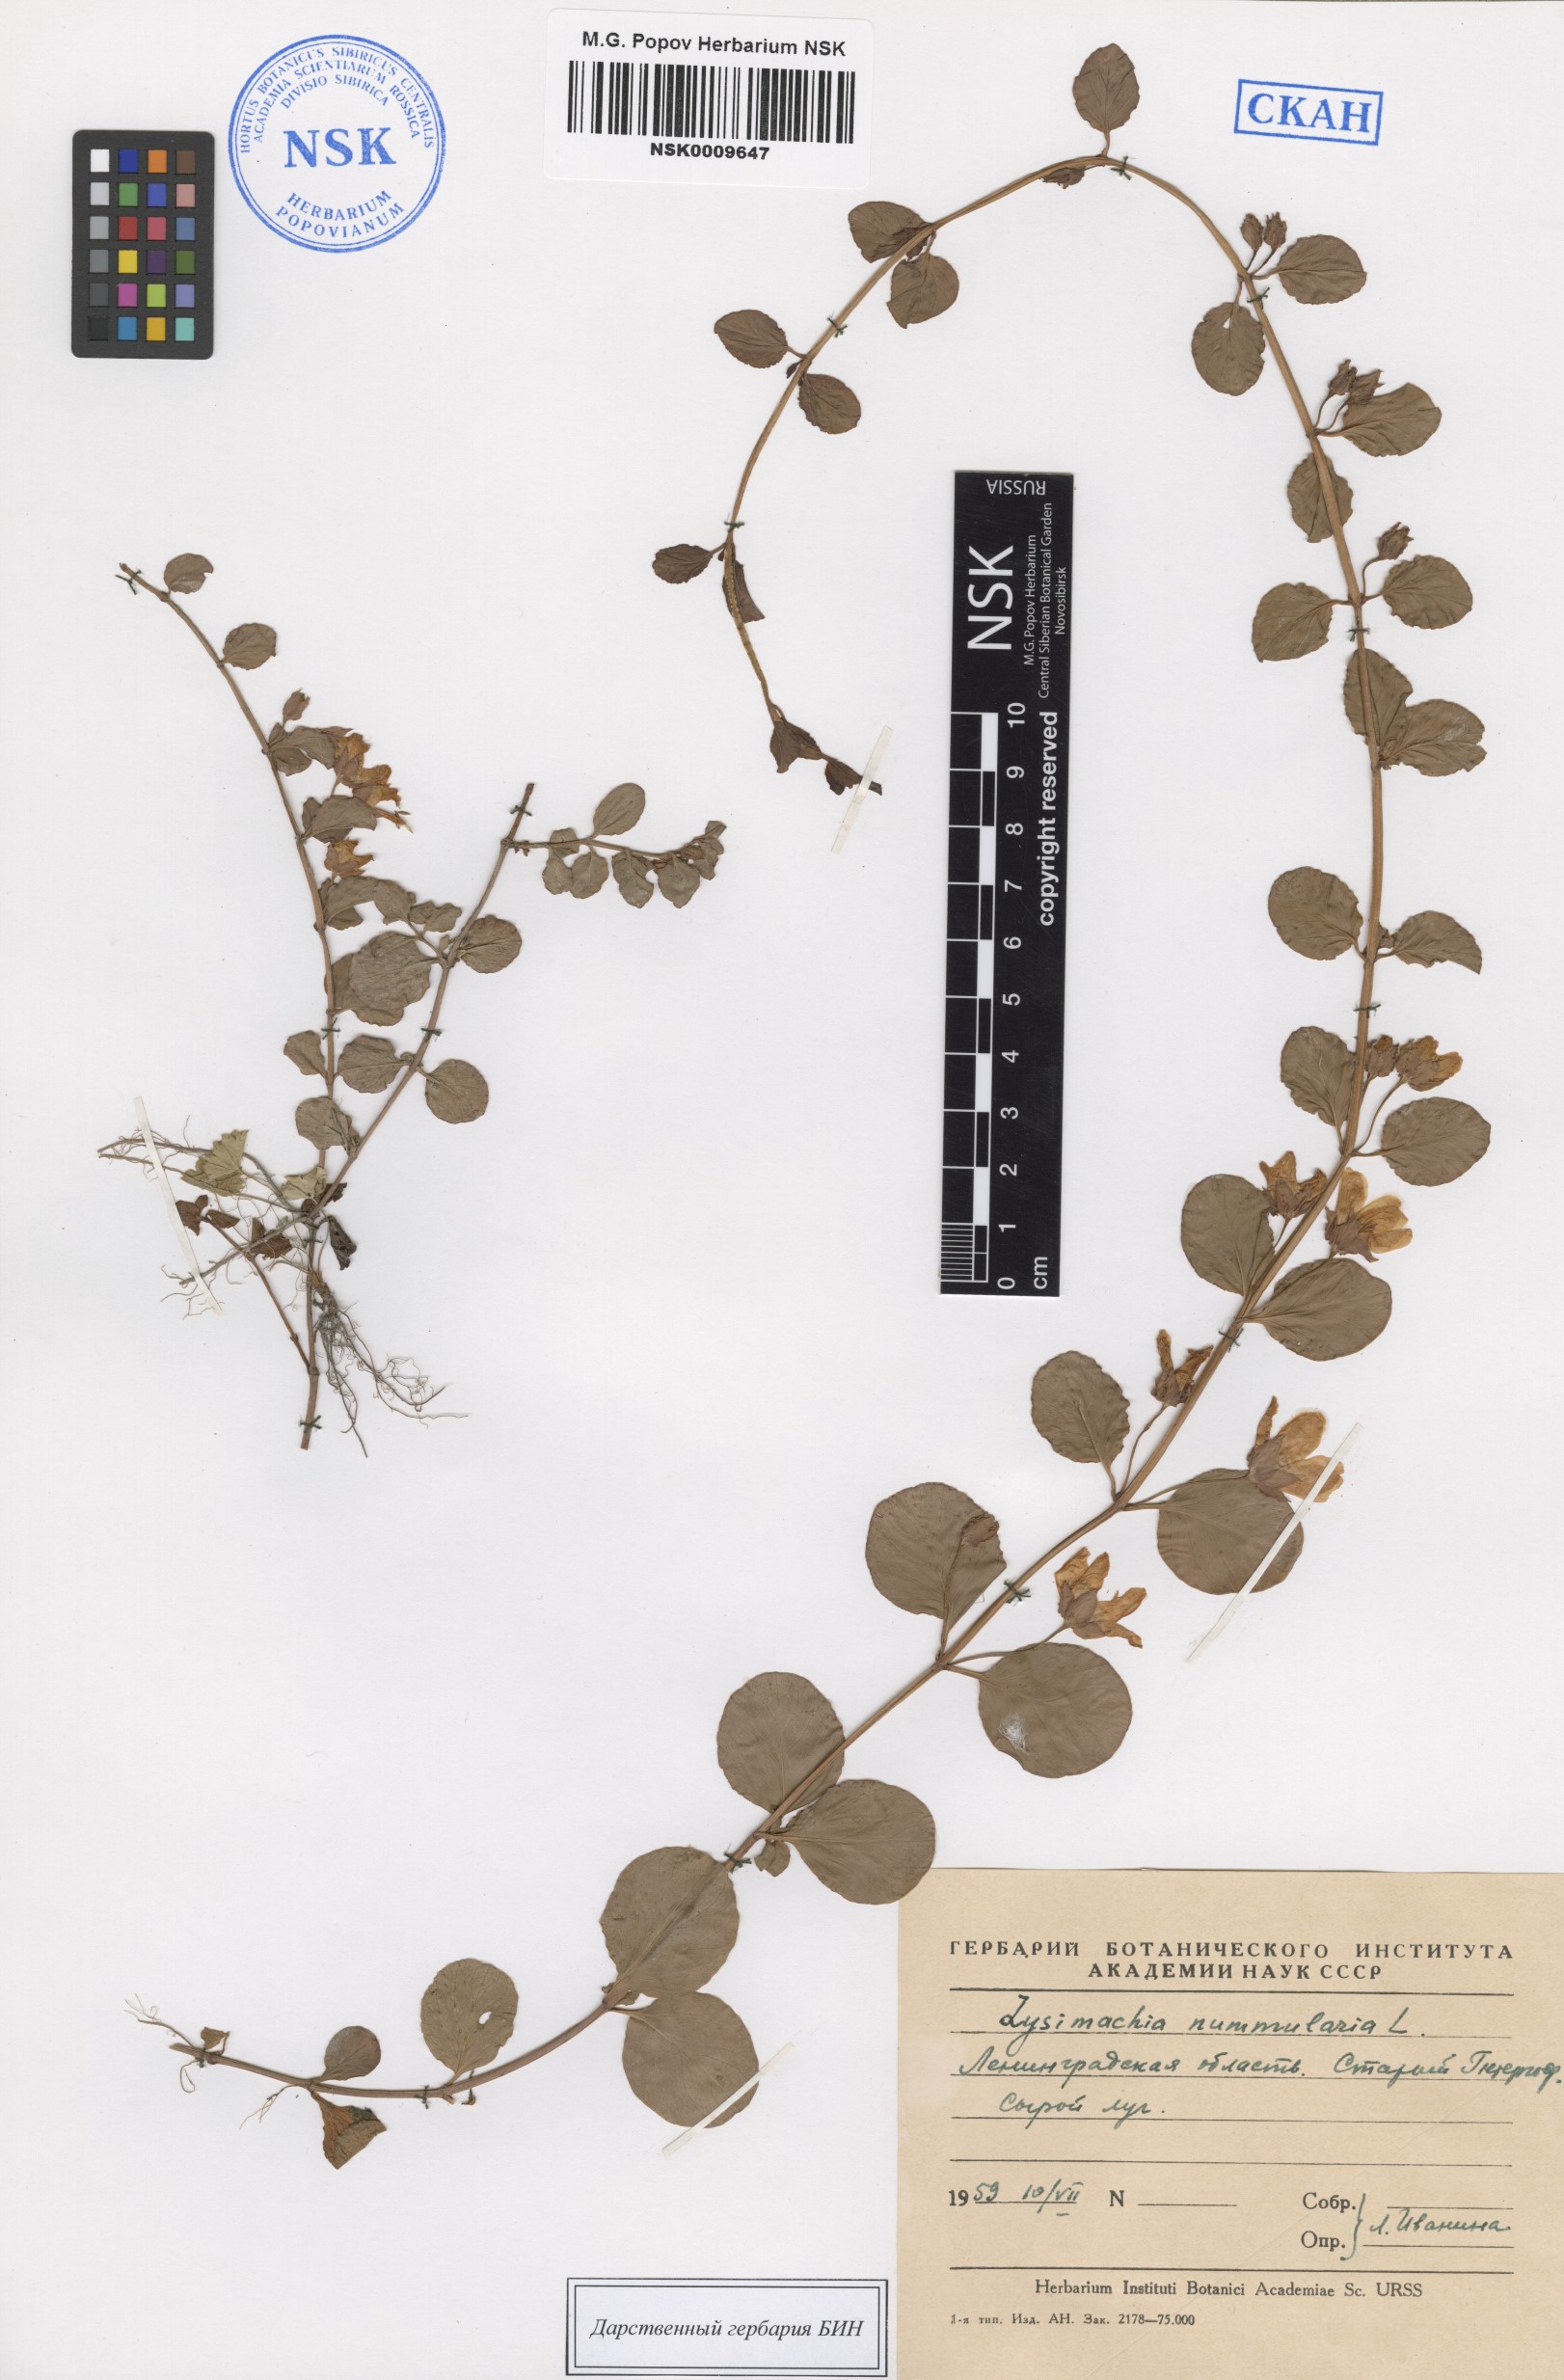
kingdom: Plantae
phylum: Tracheophyta
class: Magnoliopsida
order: Ericales
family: Primulaceae
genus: Lysimachia
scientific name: Lysimachia nummularia
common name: Moneywort
